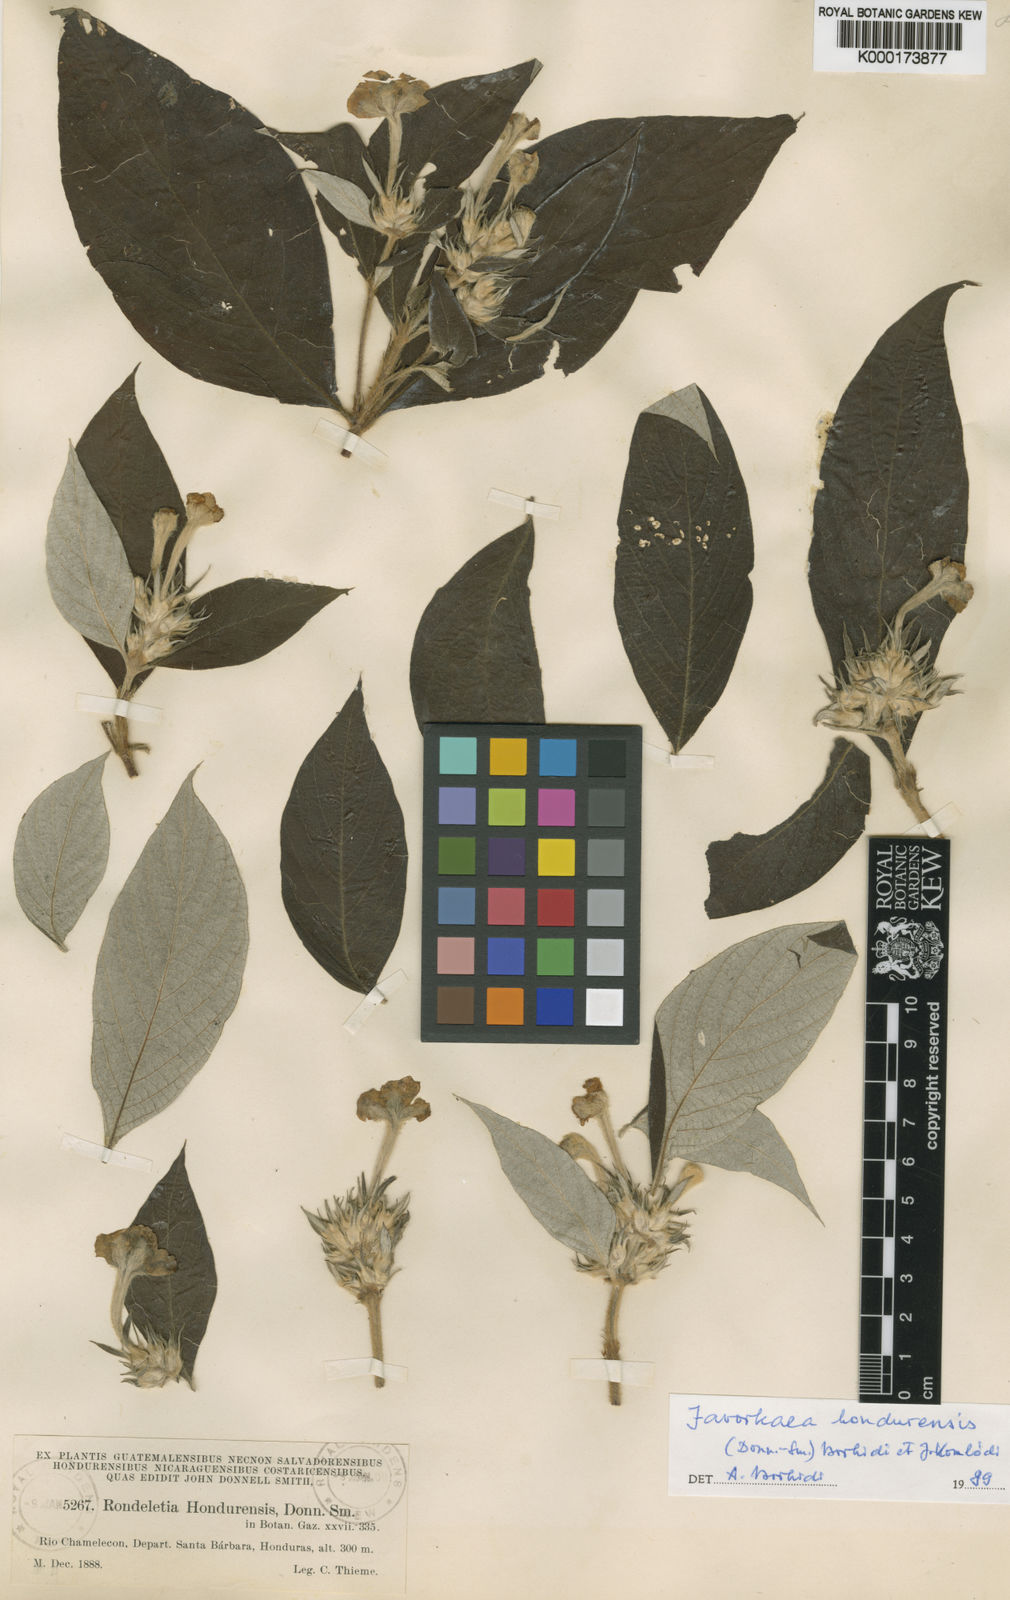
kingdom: Plantae
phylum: Tracheophyta
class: Magnoliopsida
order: Gentianales
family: Rubiaceae
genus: Arachnothryx
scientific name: Arachnothryx hondurensis
